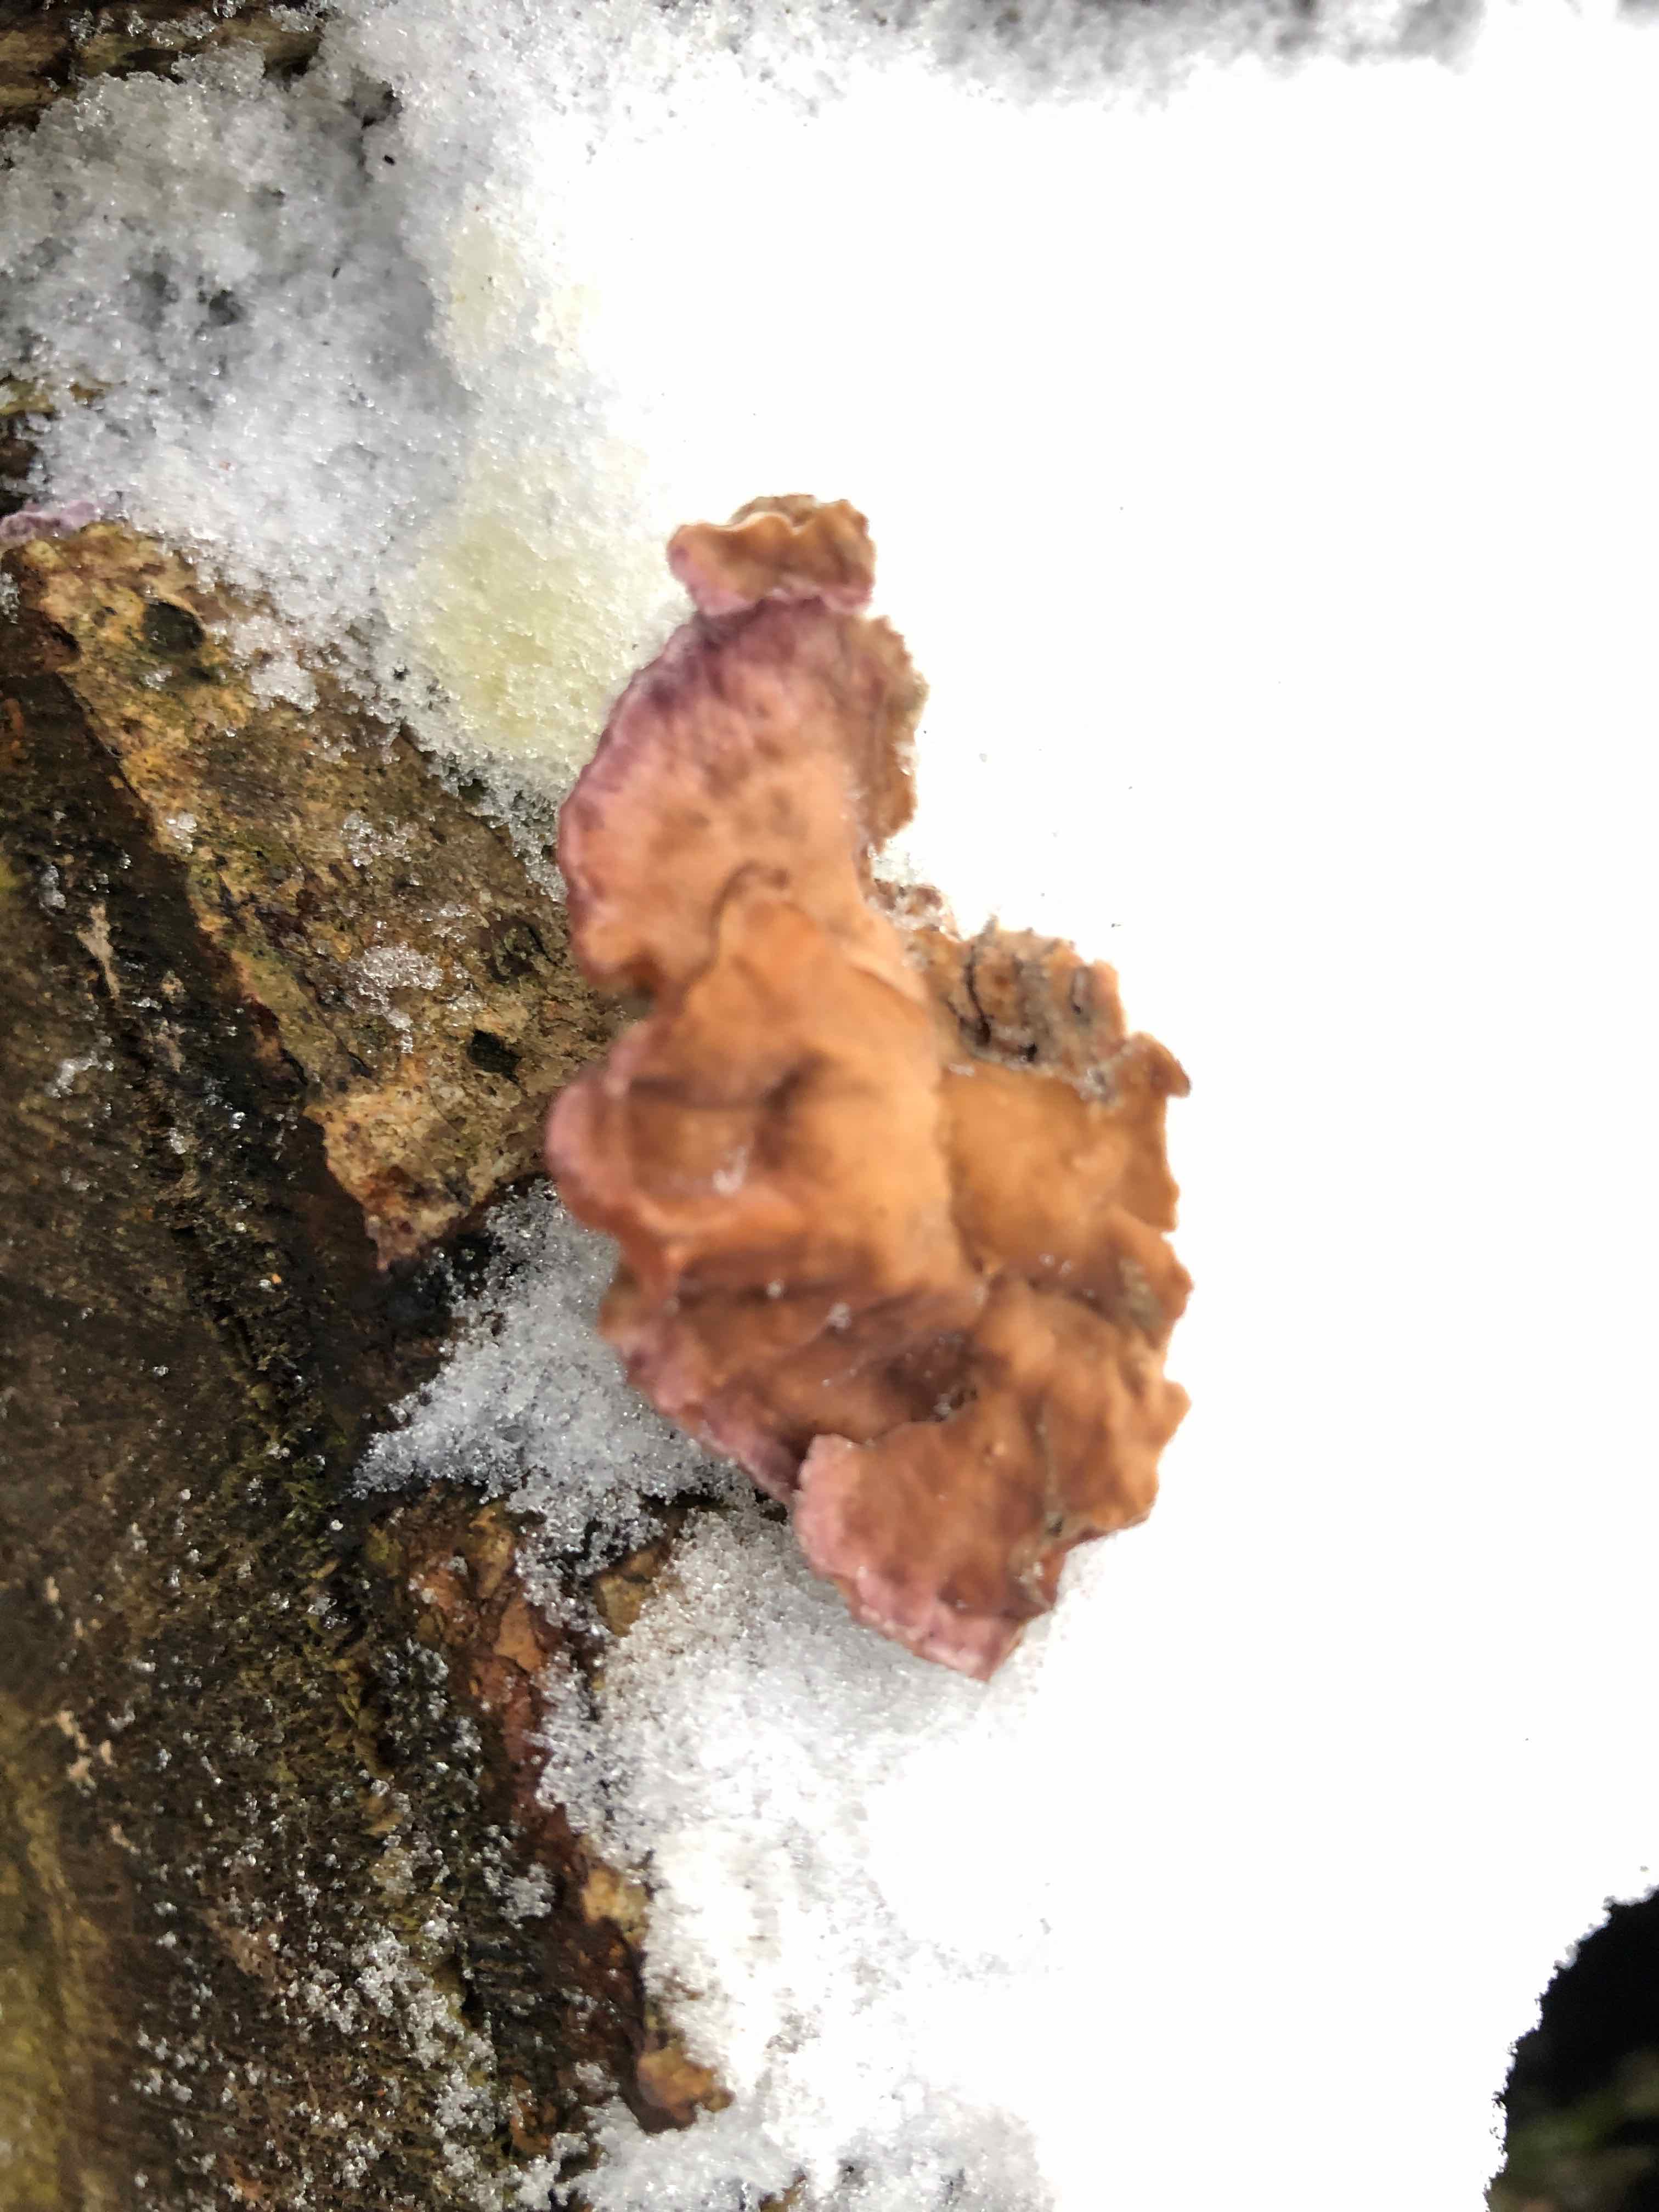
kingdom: Fungi
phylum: Basidiomycota
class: Agaricomycetes
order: Agaricales
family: Cyphellaceae
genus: Chondrostereum
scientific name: Chondrostereum purpureum
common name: purpurlædersvamp
